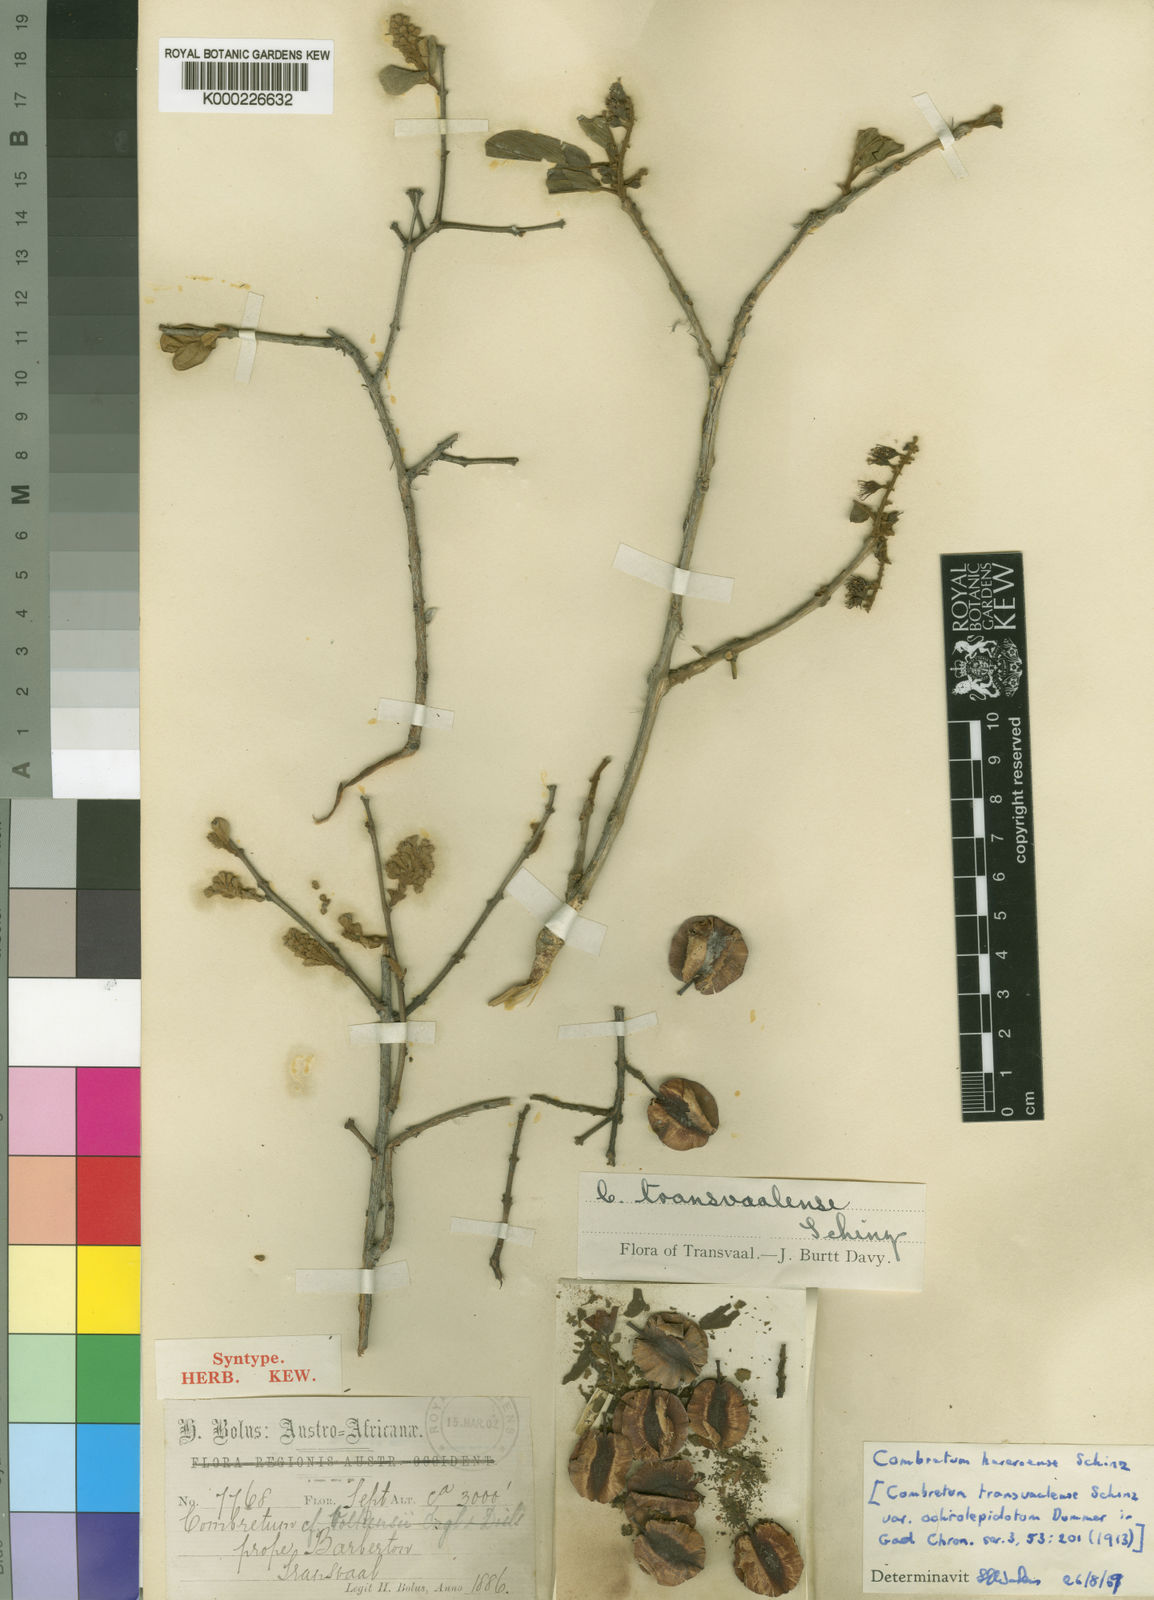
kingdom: Plantae
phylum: Tracheophyta
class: Magnoliopsida
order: Myrtales
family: Combretaceae
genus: Combretum
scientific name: Combretum hereroense
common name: Russet bushwillow
